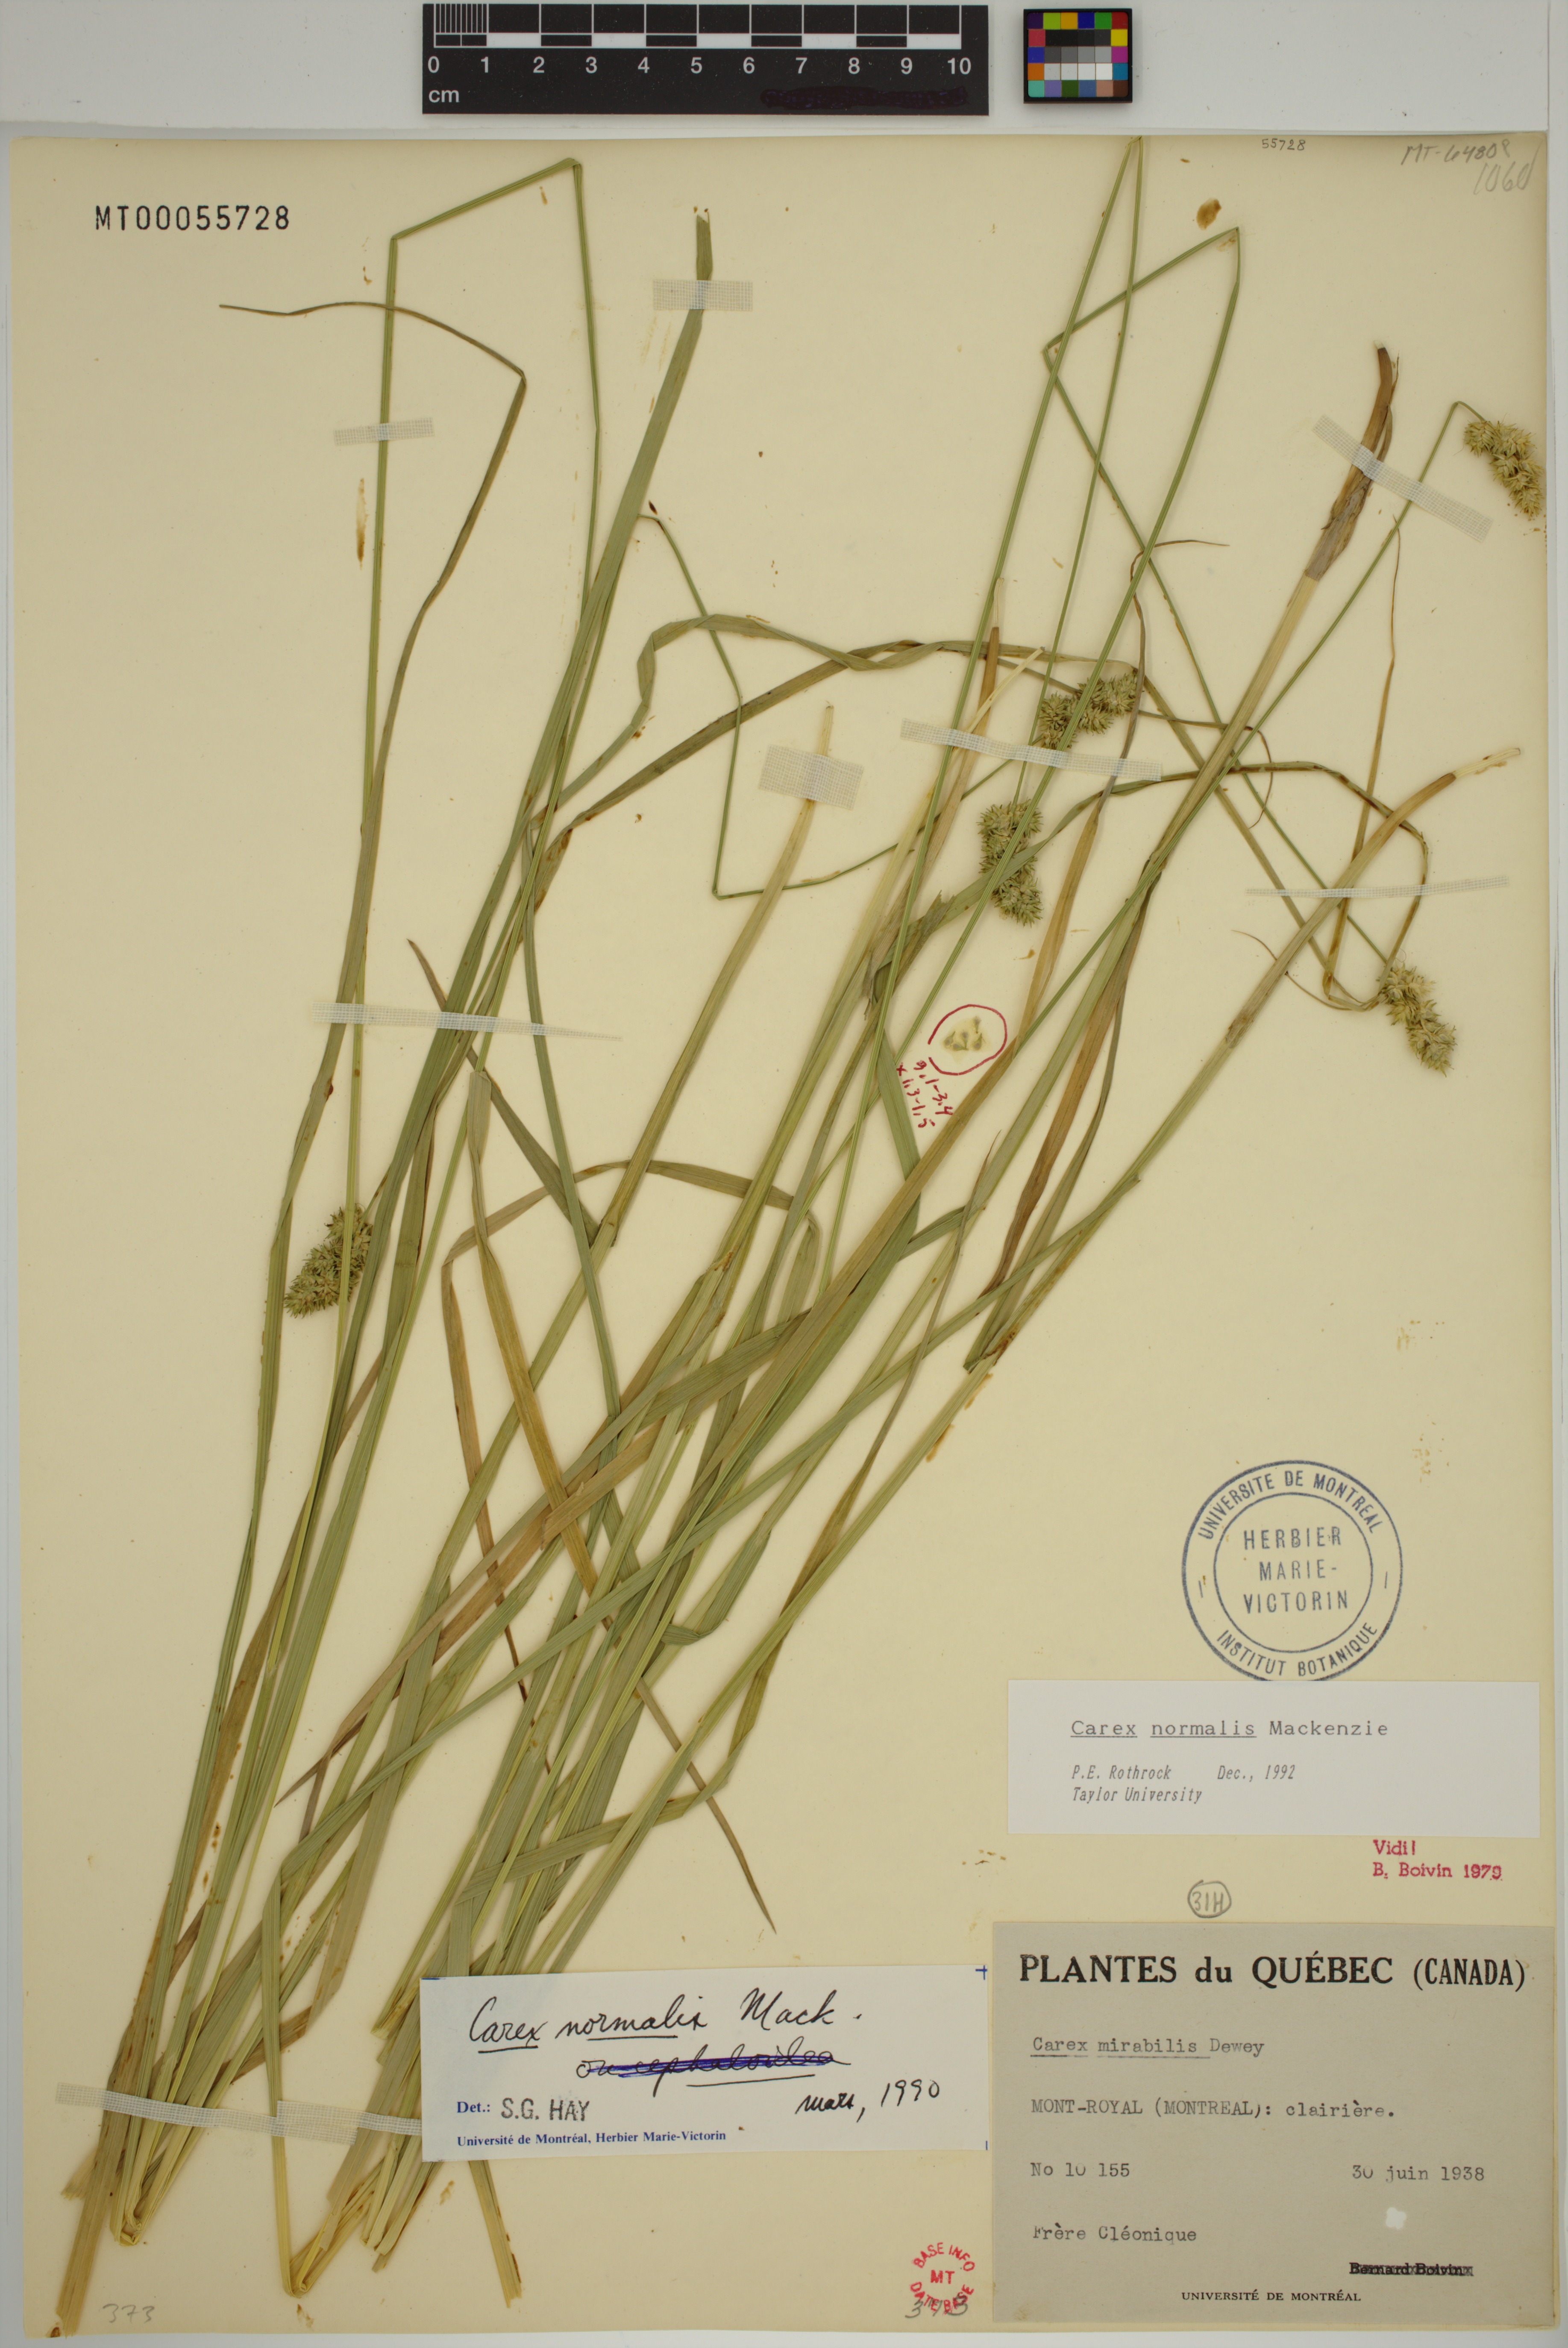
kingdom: Plantae
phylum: Tracheophyta
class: Liliopsida
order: Poales
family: Cyperaceae
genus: Carex
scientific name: Carex normalis
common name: Greater straw sedge
